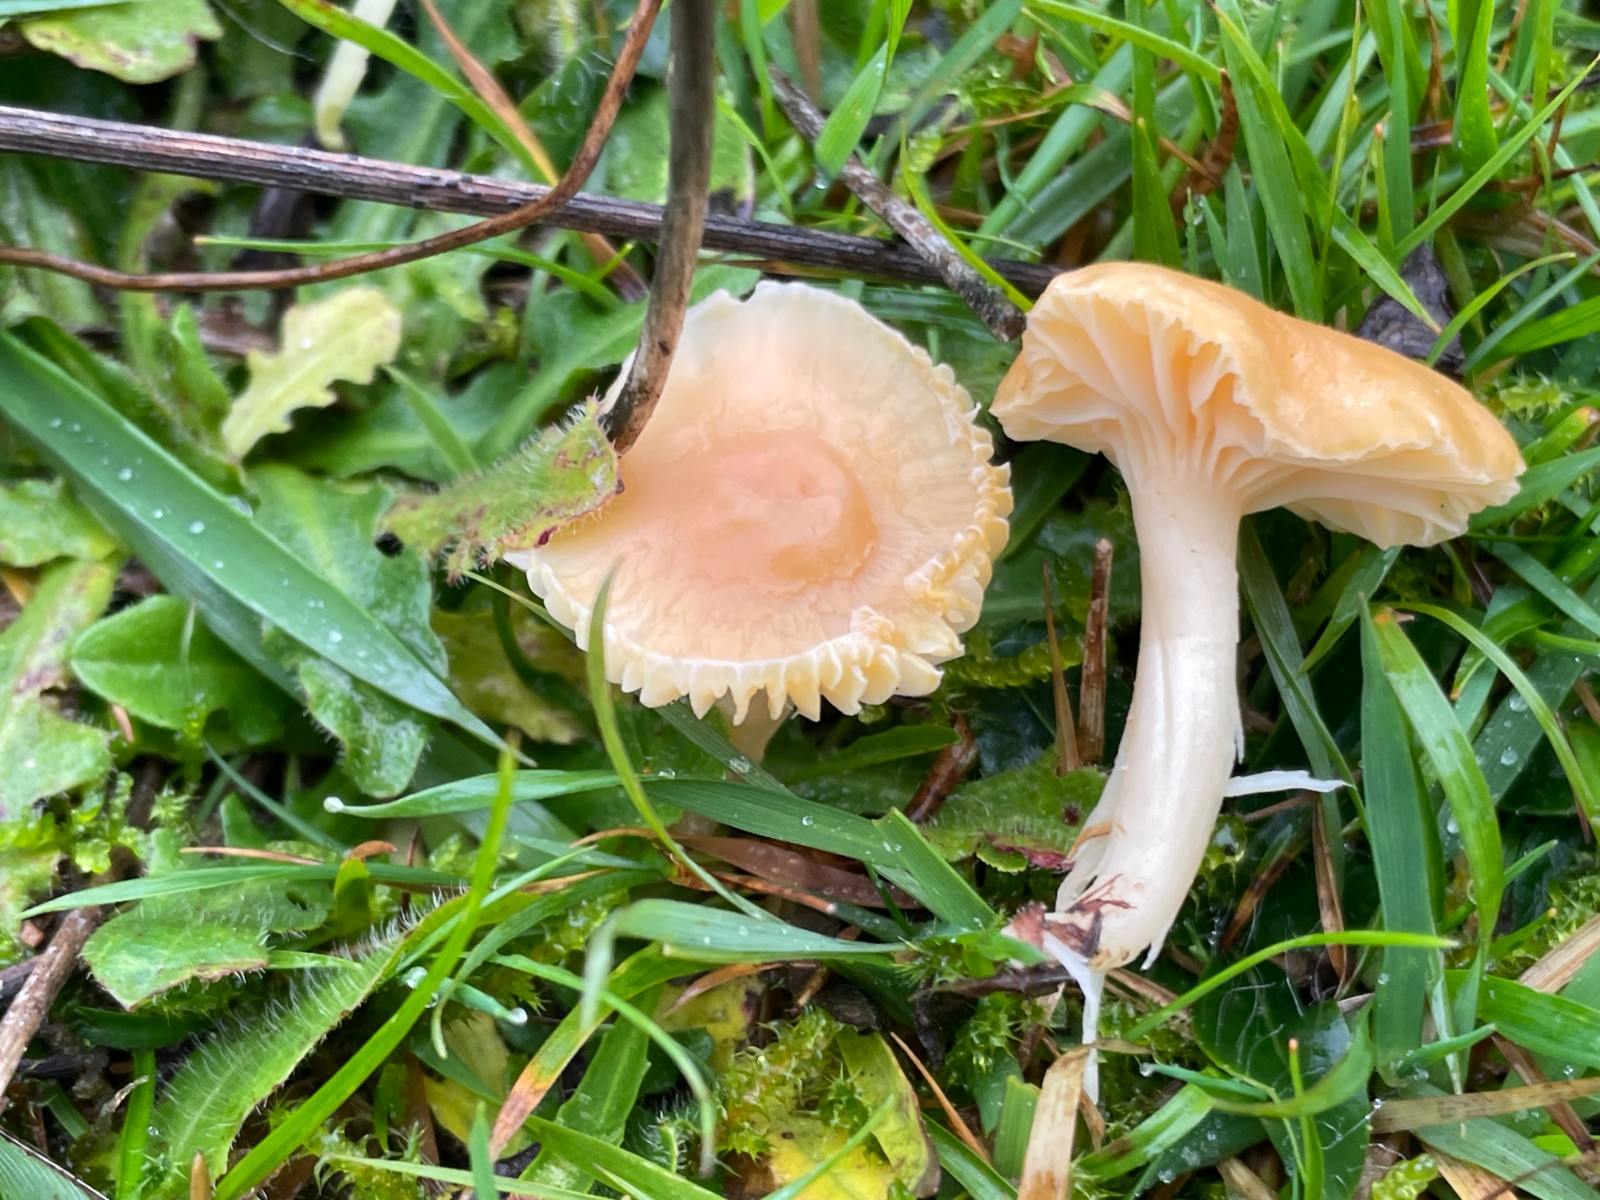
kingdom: Fungi
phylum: Basidiomycota
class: Agaricomycetes
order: Agaricales
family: Hygrophoraceae
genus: Cuphophyllus
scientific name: Cuphophyllus pratensis
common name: eng-vokshat
